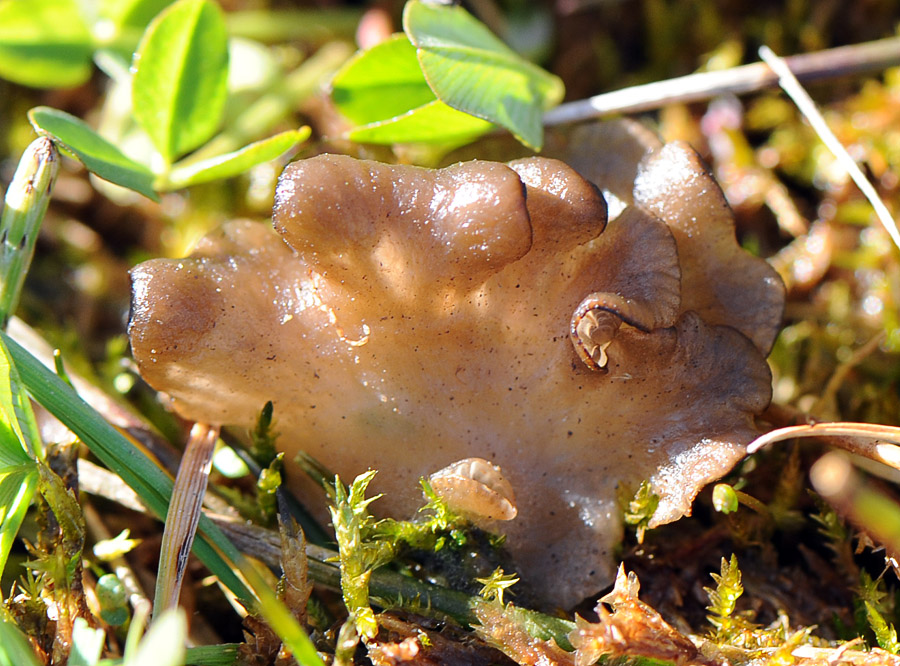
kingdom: Fungi
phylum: Basidiomycota
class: Agaricomycetes
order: Agaricales
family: Hygrophoraceae
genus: Arrhenia
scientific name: Arrhenia lobata
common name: siddende fontænehat
